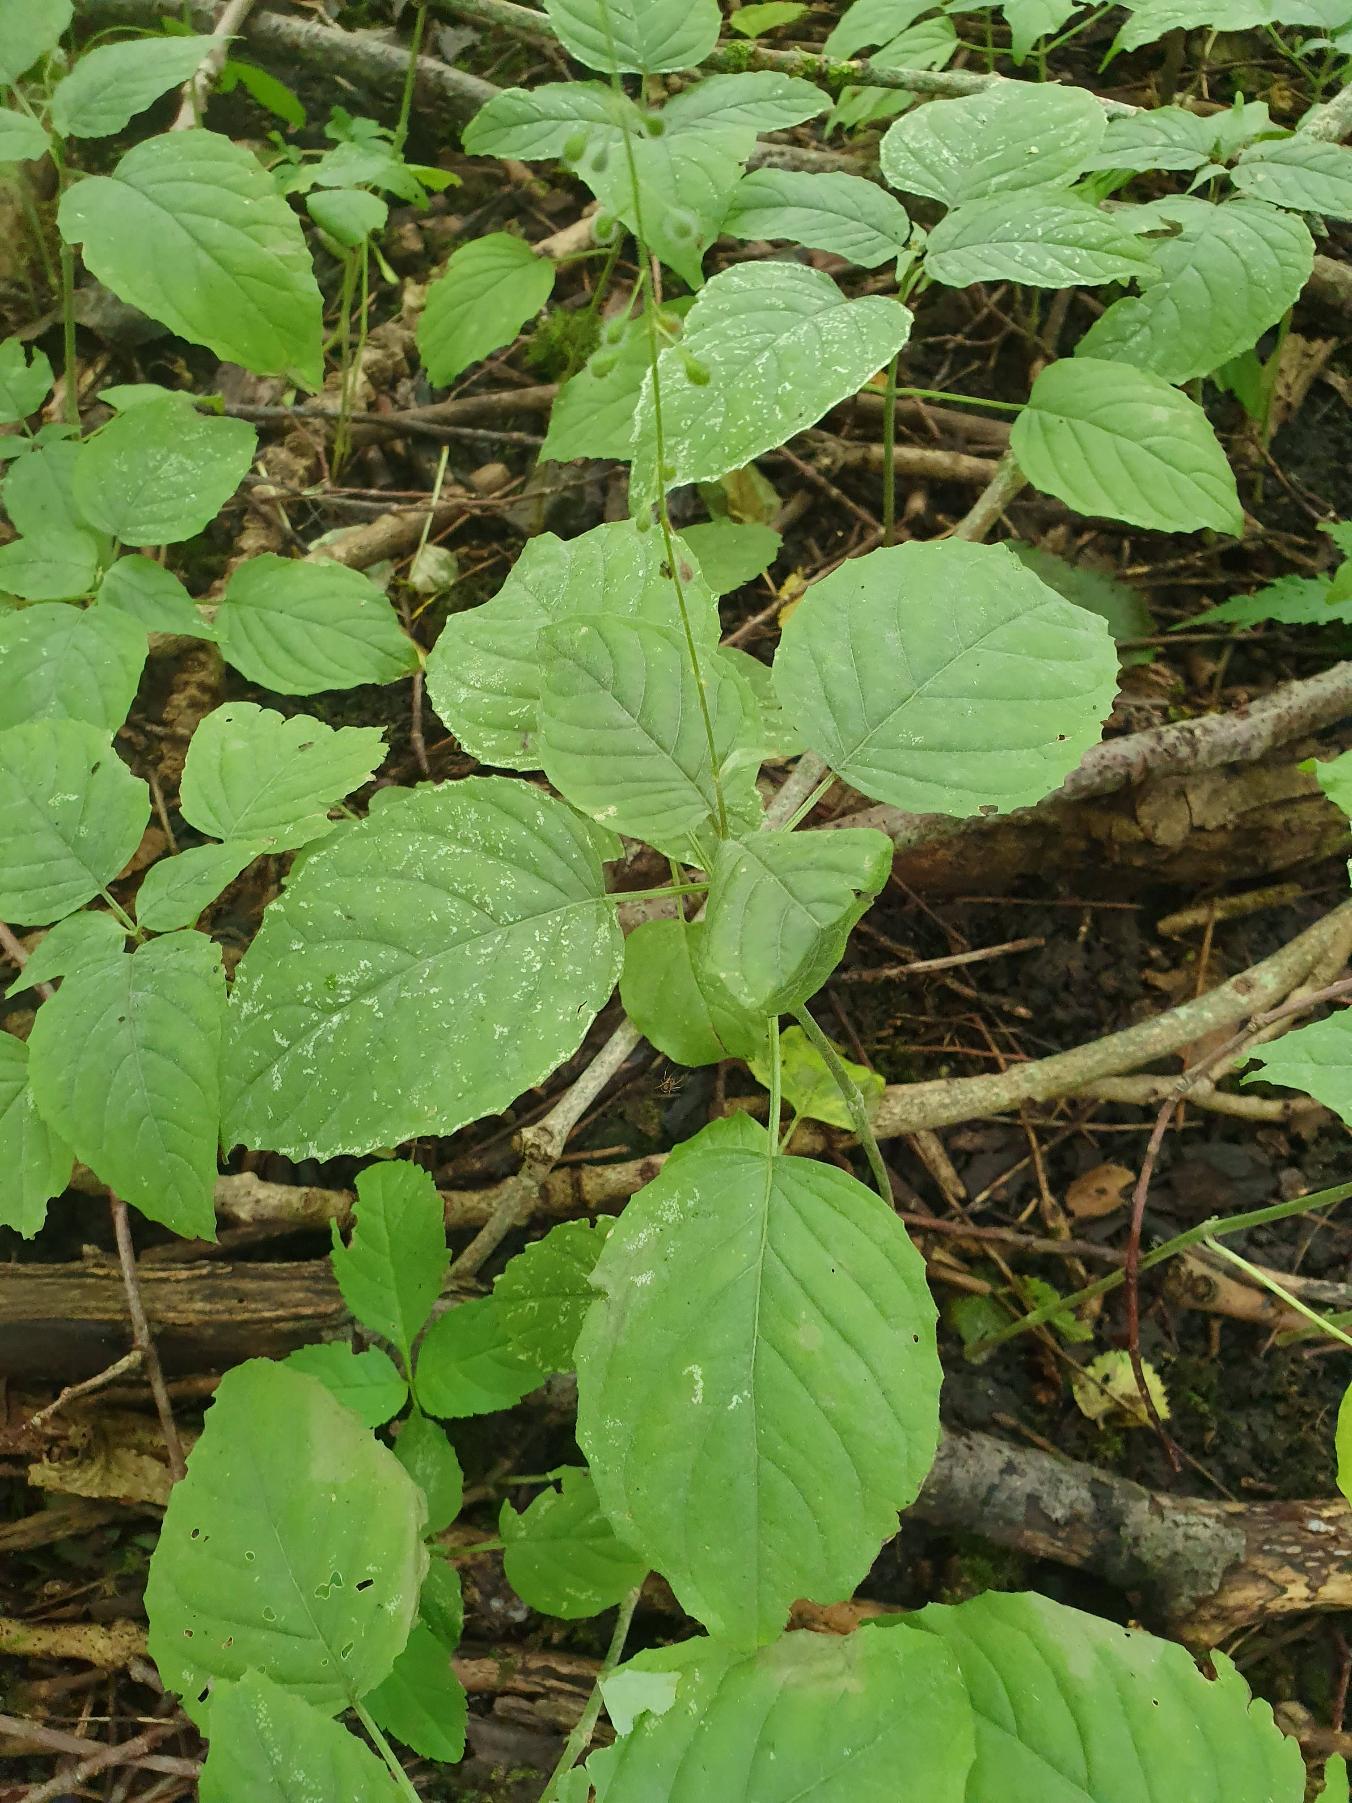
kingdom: Plantae
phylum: Tracheophyta
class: Magnoliopsida
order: Myrtales
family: Onagraceae
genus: Circaea
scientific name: Circaea lutetiana
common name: Dunet steffensurt
